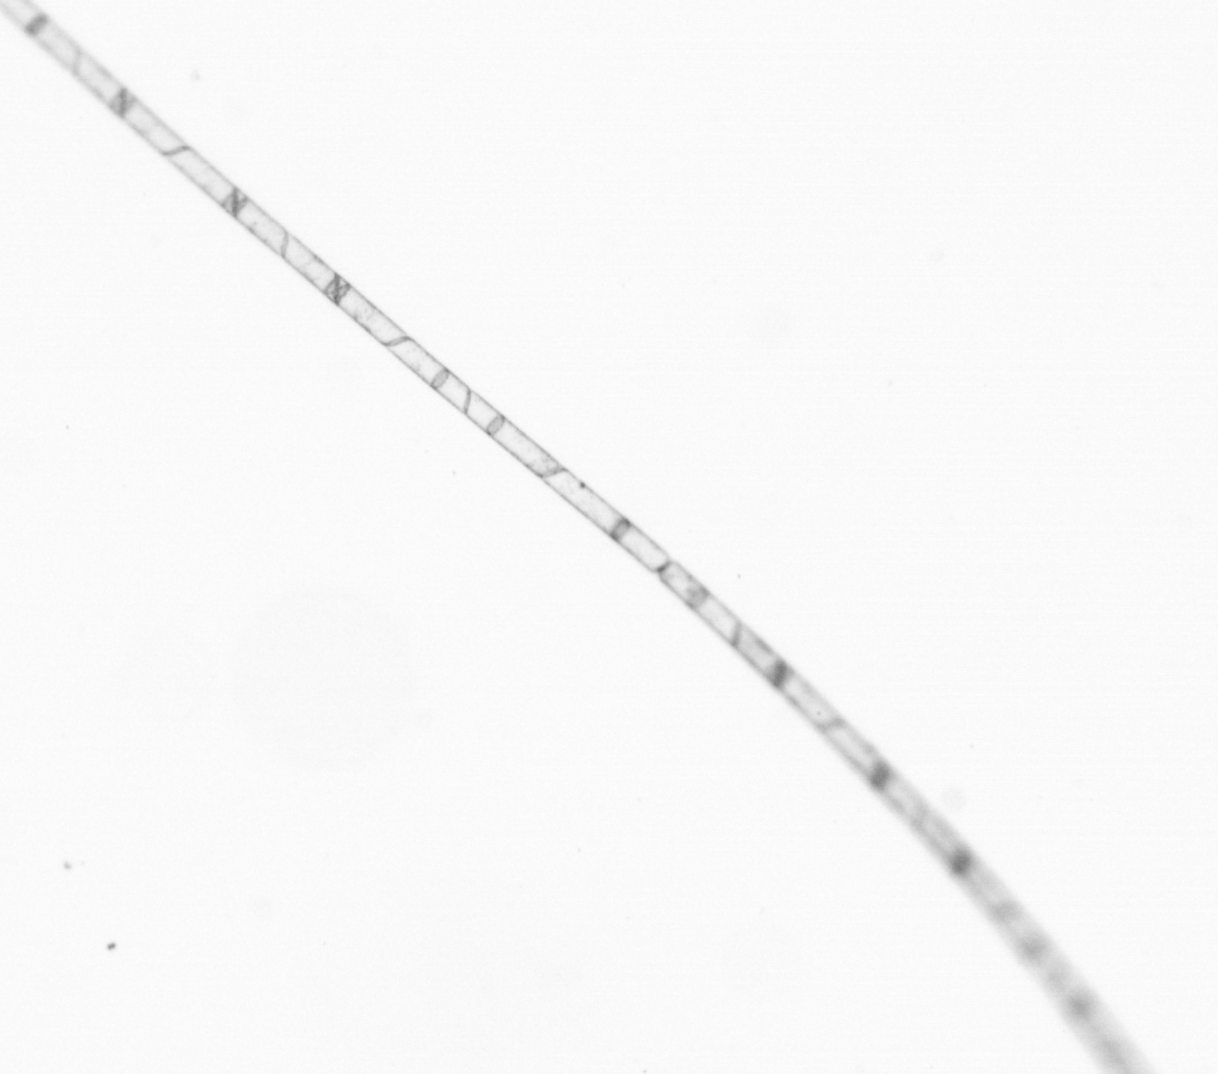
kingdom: Chromista
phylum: Ochrophyta
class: Bacillariophyceae
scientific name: Bacillariophyceae
